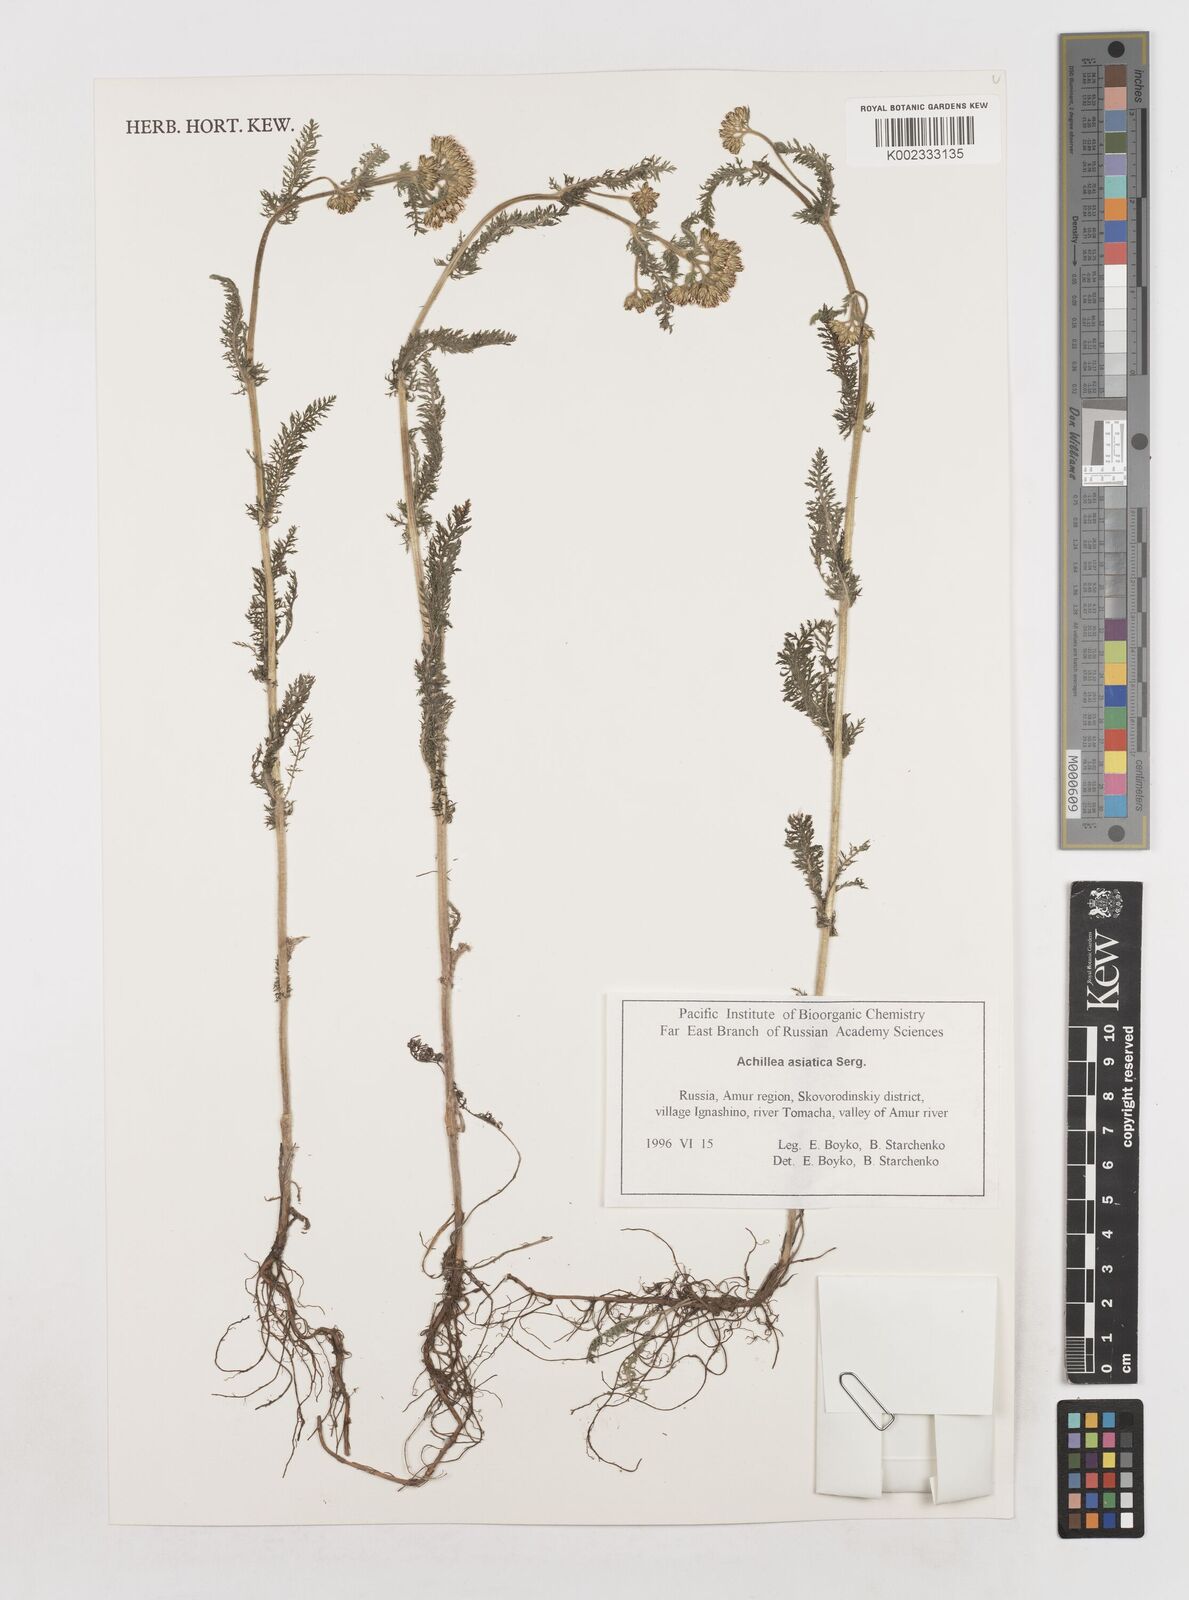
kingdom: Plantae
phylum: Tracheophyta
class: Magnoliopsida
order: Asterales
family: Asteraceae
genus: Achillea
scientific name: Achillea asiatica
